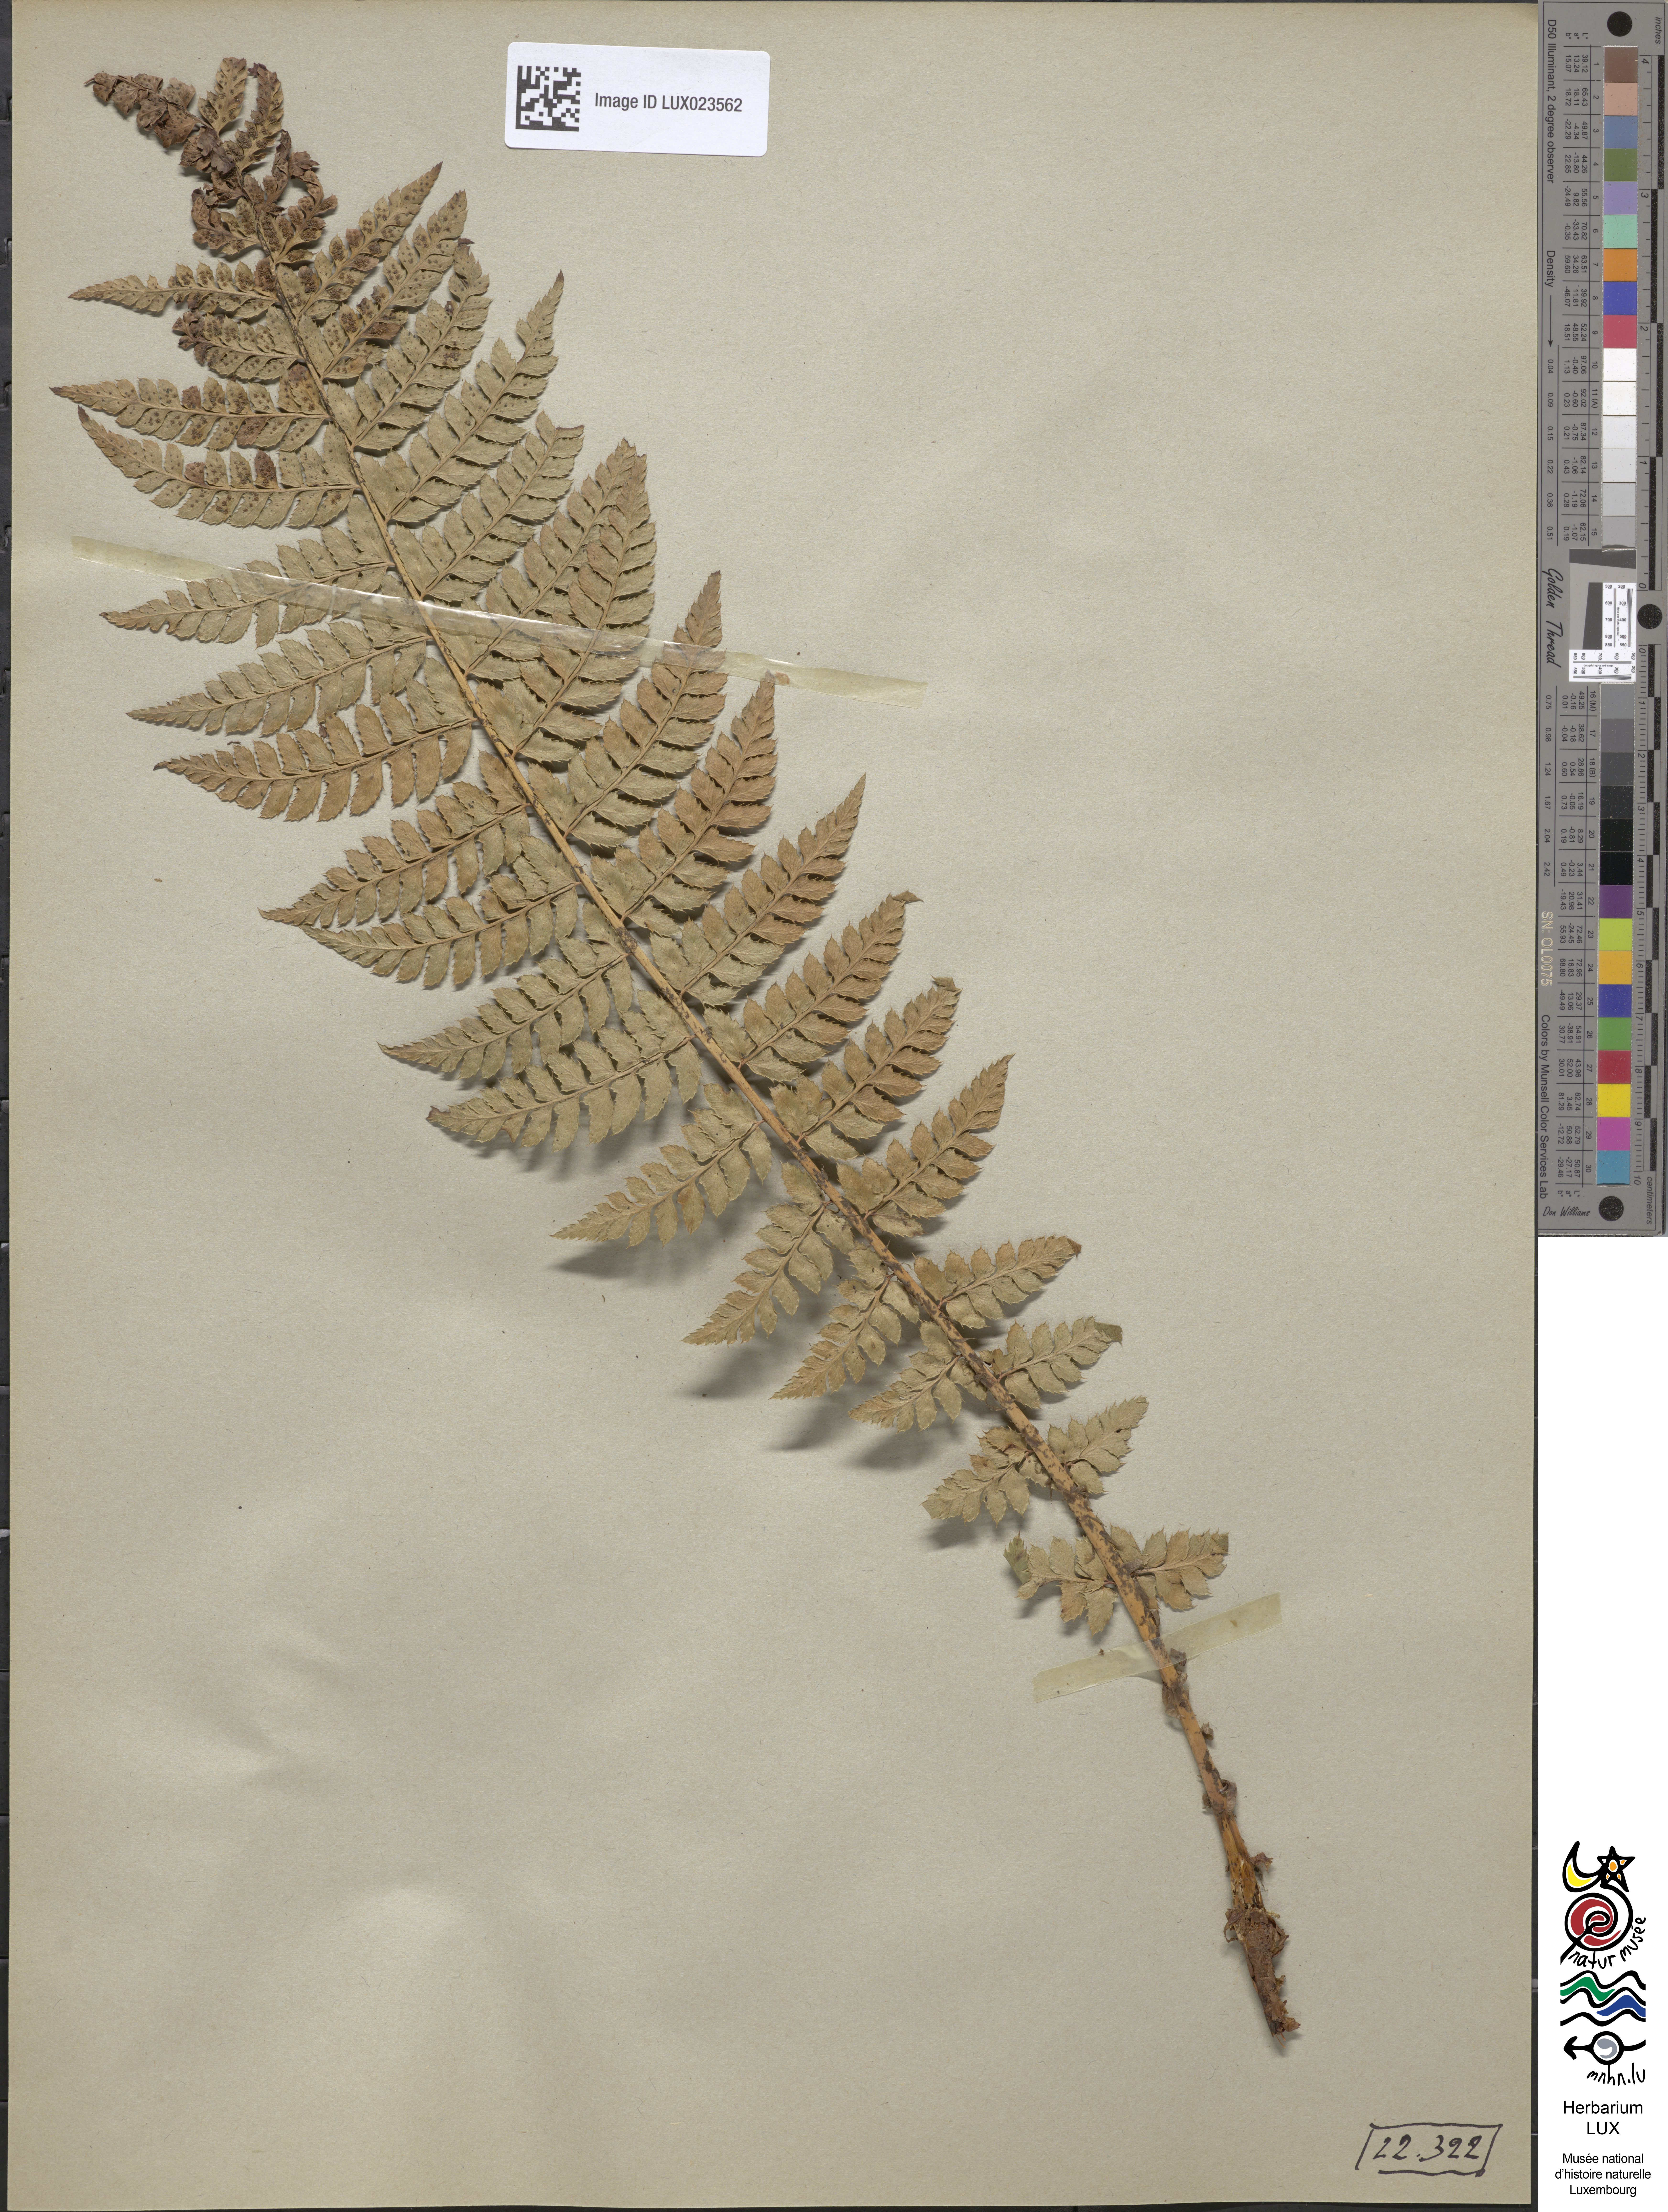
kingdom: Plantae
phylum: Tracheophyta
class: Polypodiopsida
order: Polypodiales
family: Dryopteridaceae
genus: Polystichum
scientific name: Polystichum aculeatum
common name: Hard shield-fern
